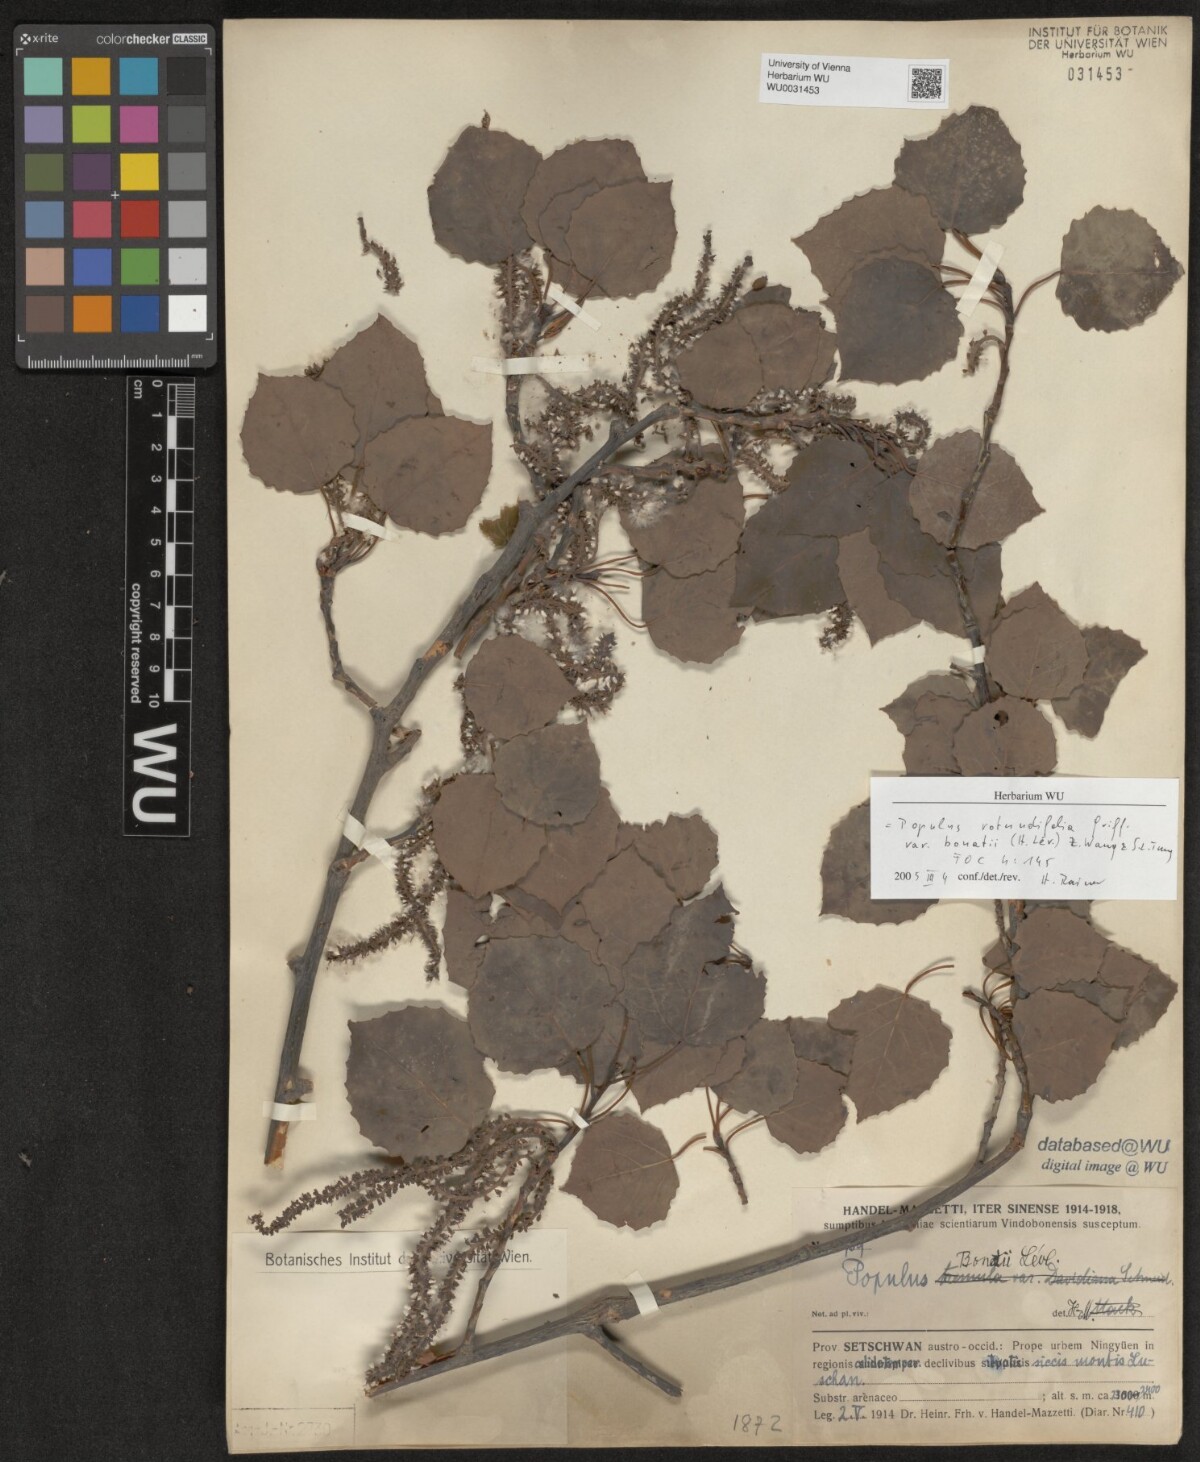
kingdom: Plantae
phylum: Tracheophyta
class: Magnoliopsida
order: Malpighiales
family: Salicaceae
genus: Populus
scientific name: Populus rotundifolia
